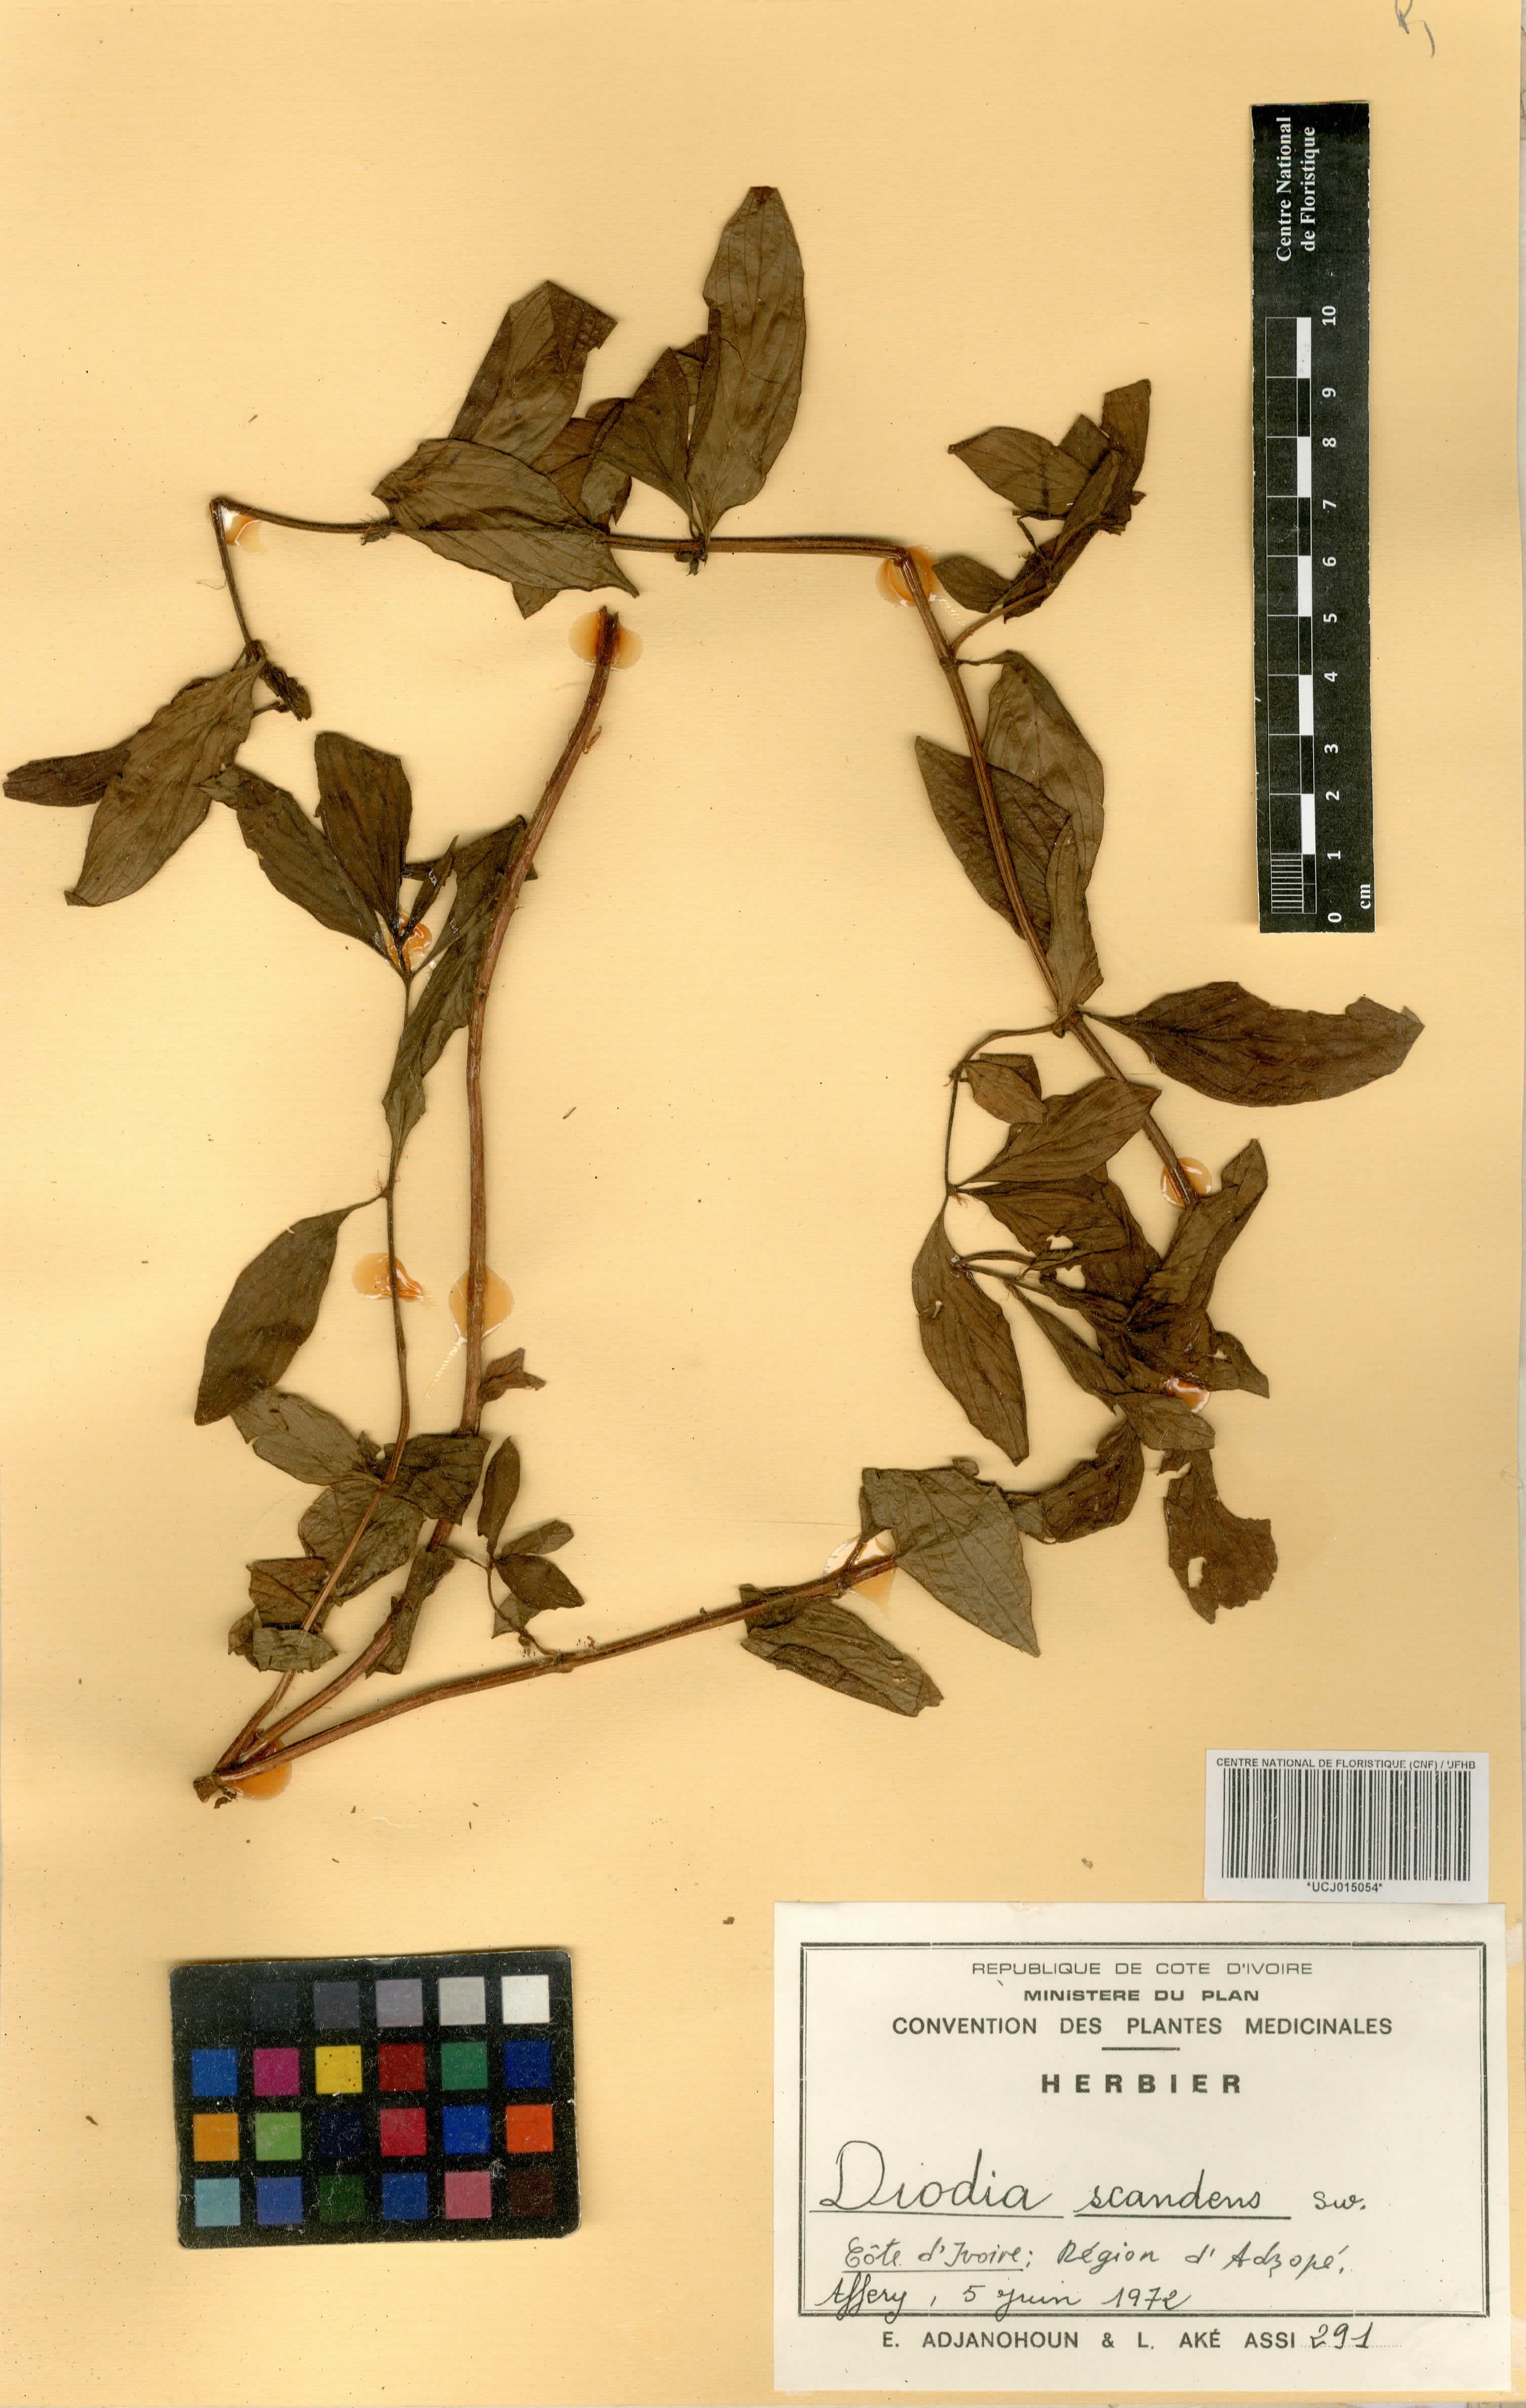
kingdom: Plantae
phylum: Tracheophyta
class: Magnoliopsida
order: Gentianales
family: Rubiaceae
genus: Hexasepalum
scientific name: Hexasepalum scandens
